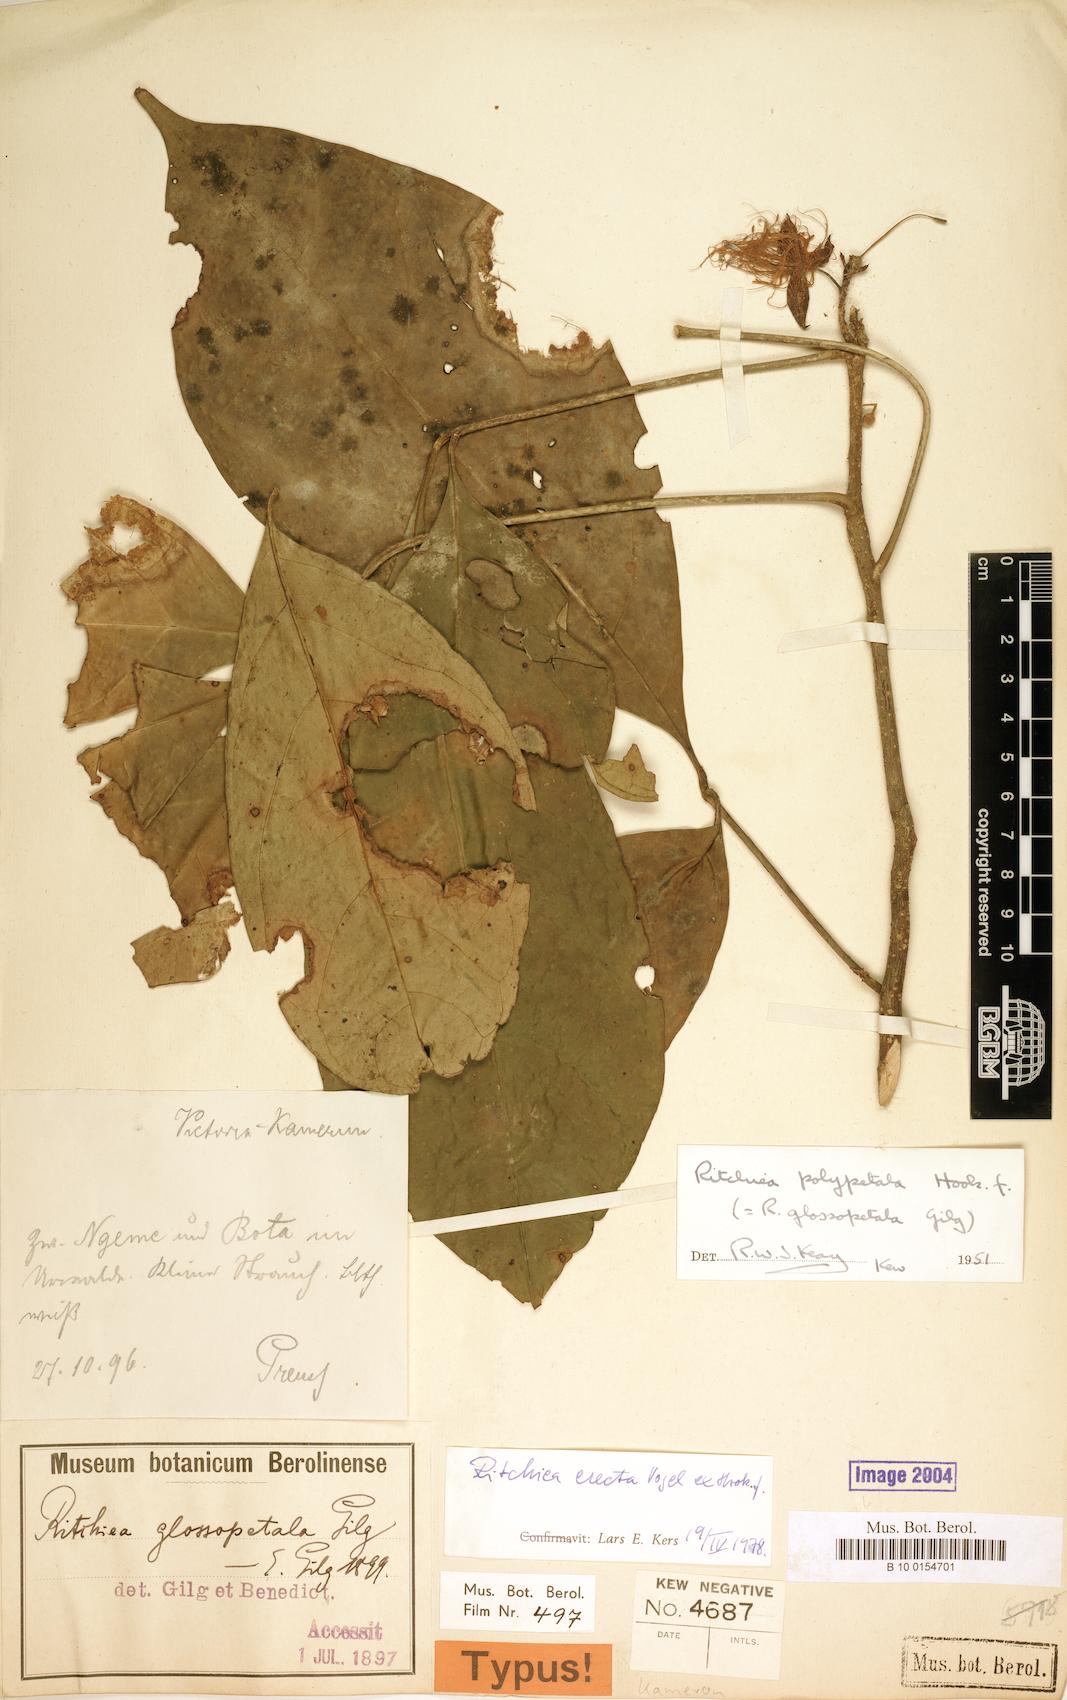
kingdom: Plantae
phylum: Tracheophyta
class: Magnoliopsida
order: Brassicales
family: Capparaceae
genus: Ritchiea
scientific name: Ritchiea erecta
